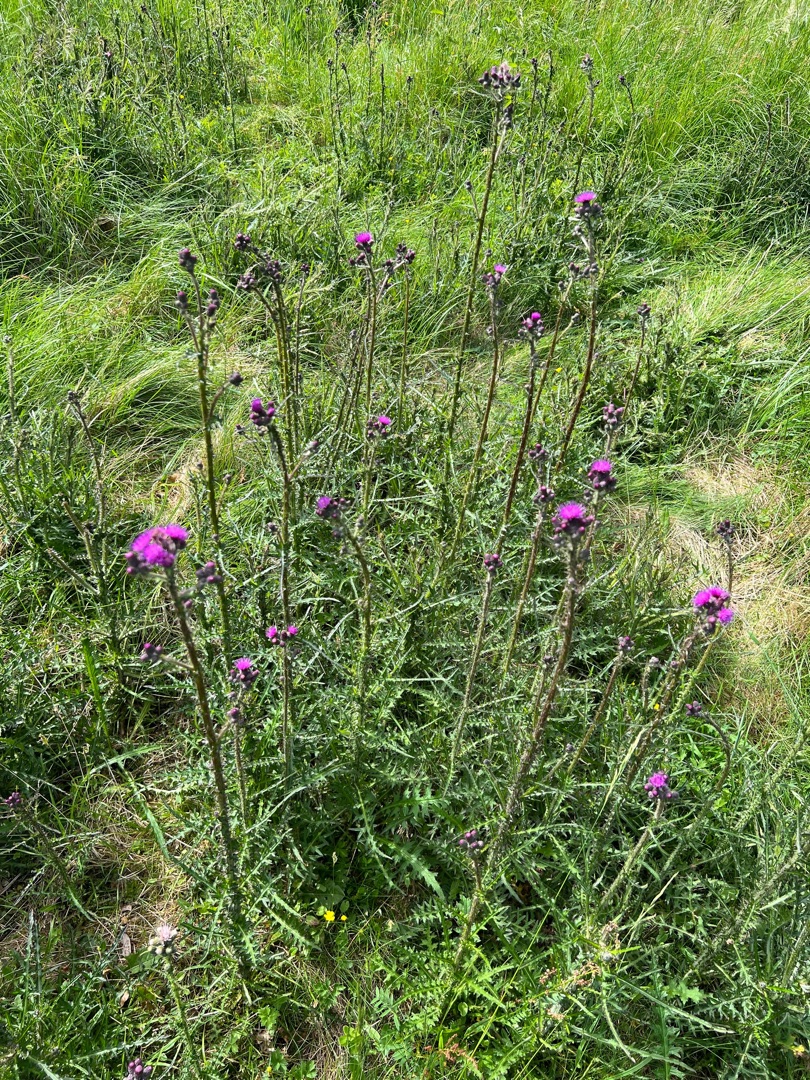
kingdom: Plantae
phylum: Tracheophyta
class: Magnoliopsida
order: Asterales
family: Asteraceae
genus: Cirsium
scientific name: Cirsium palustre
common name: Kær-tidsel
